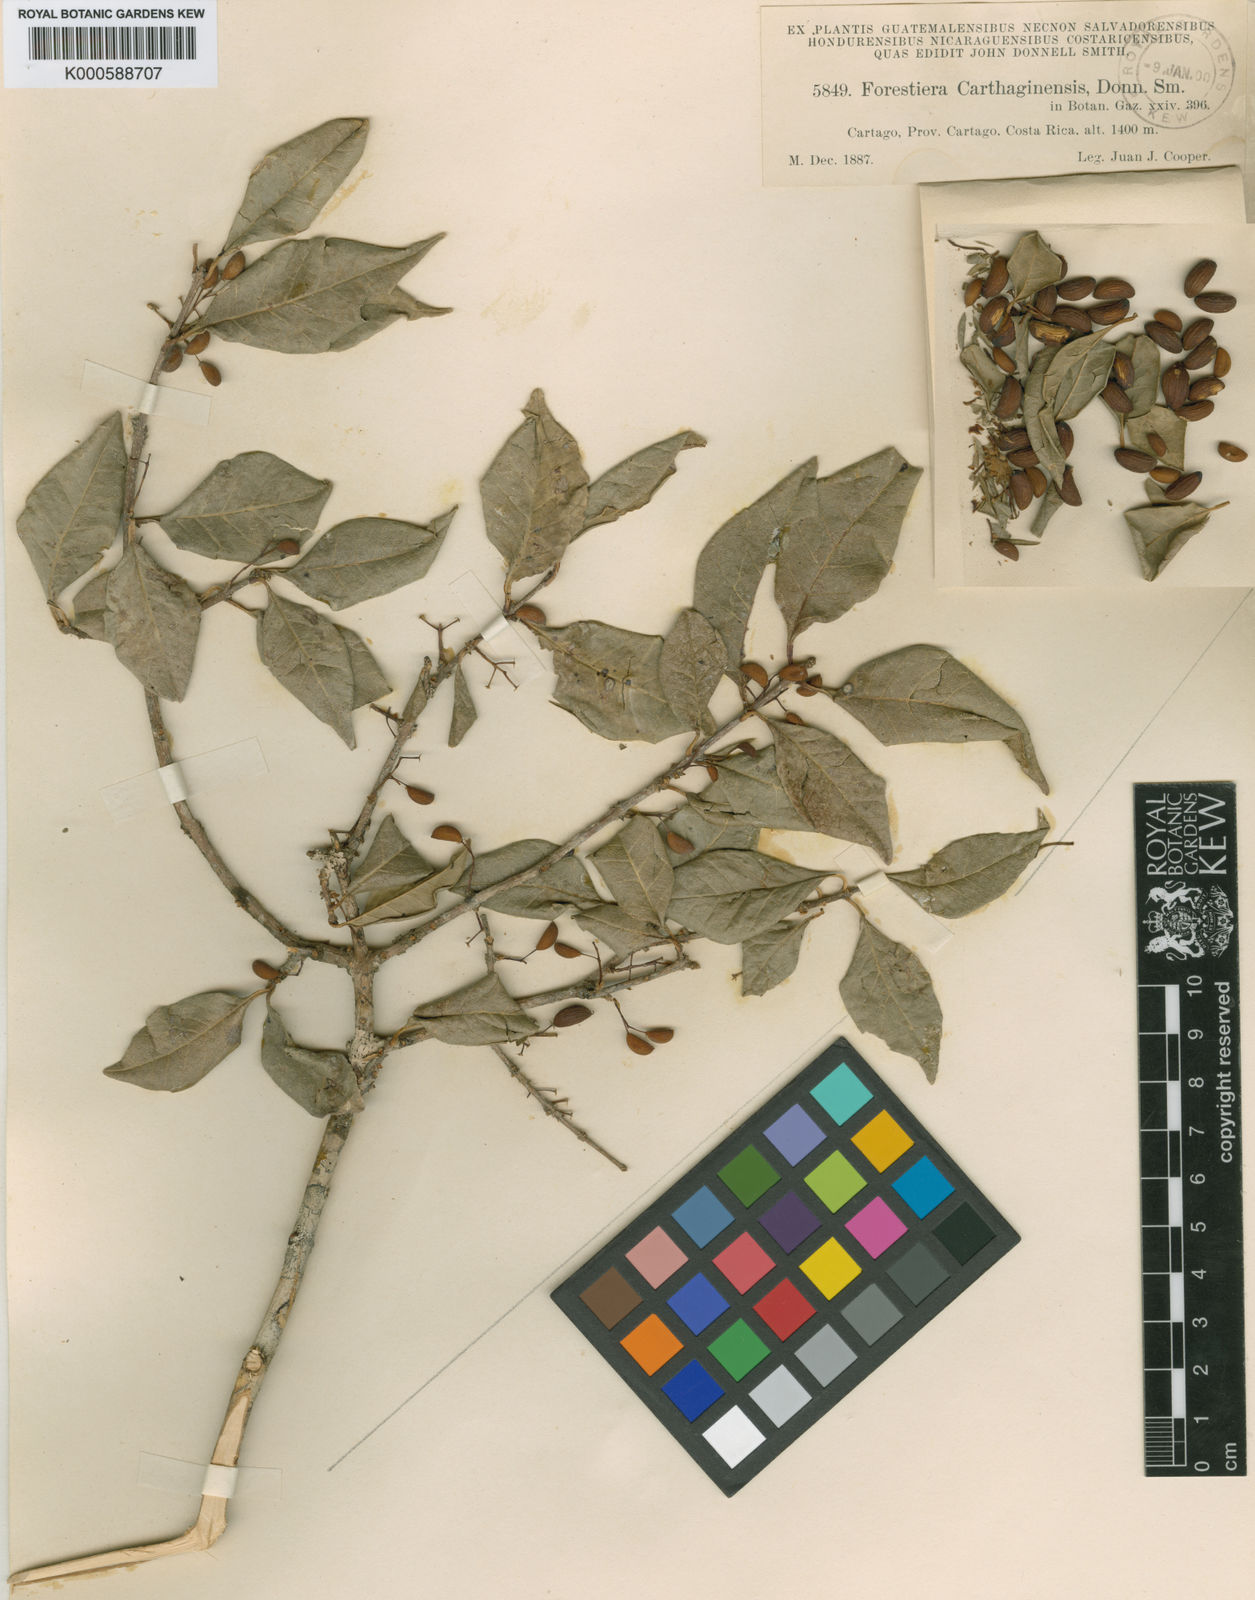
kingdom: Plantae
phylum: Tracheophyta
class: Magnoliopsida
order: Lamiales
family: Oleaceae
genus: Forestiera
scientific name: Forestiera cartaginensis
